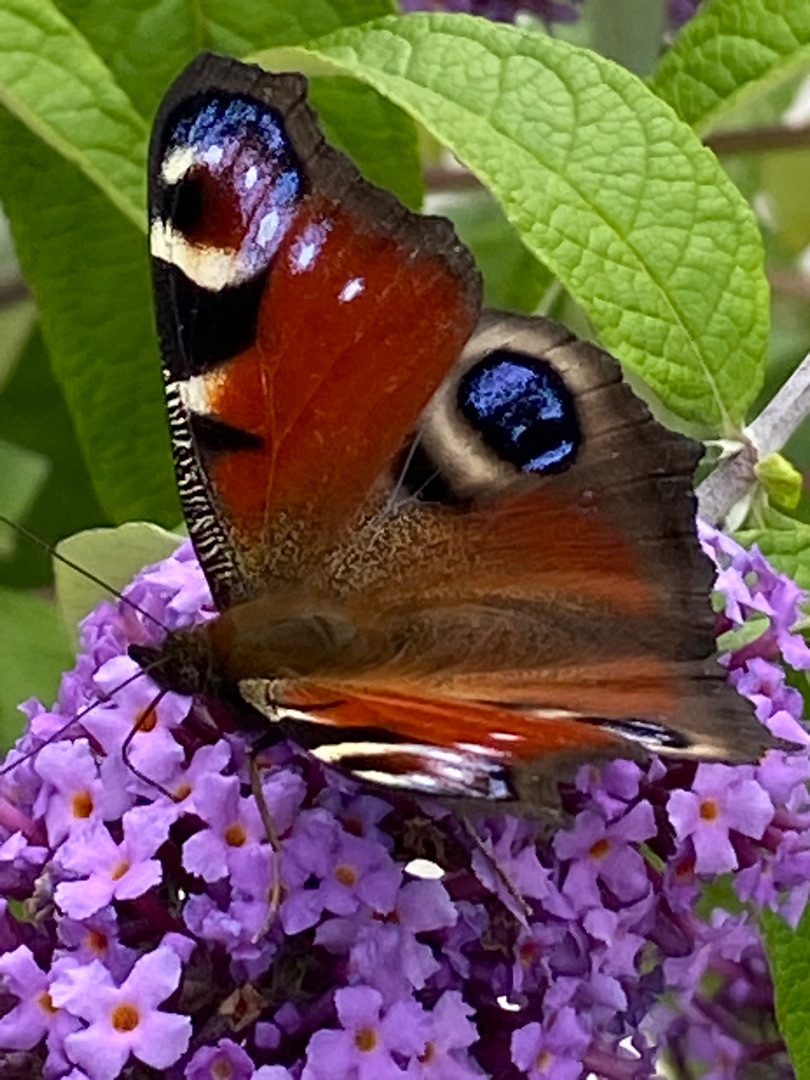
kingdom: Animalia
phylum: Arthropoda
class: Insecta
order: Lepidoptera
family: Nymphalidae
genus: Aglais
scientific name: Aglais io
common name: Dagpåfugleøje
